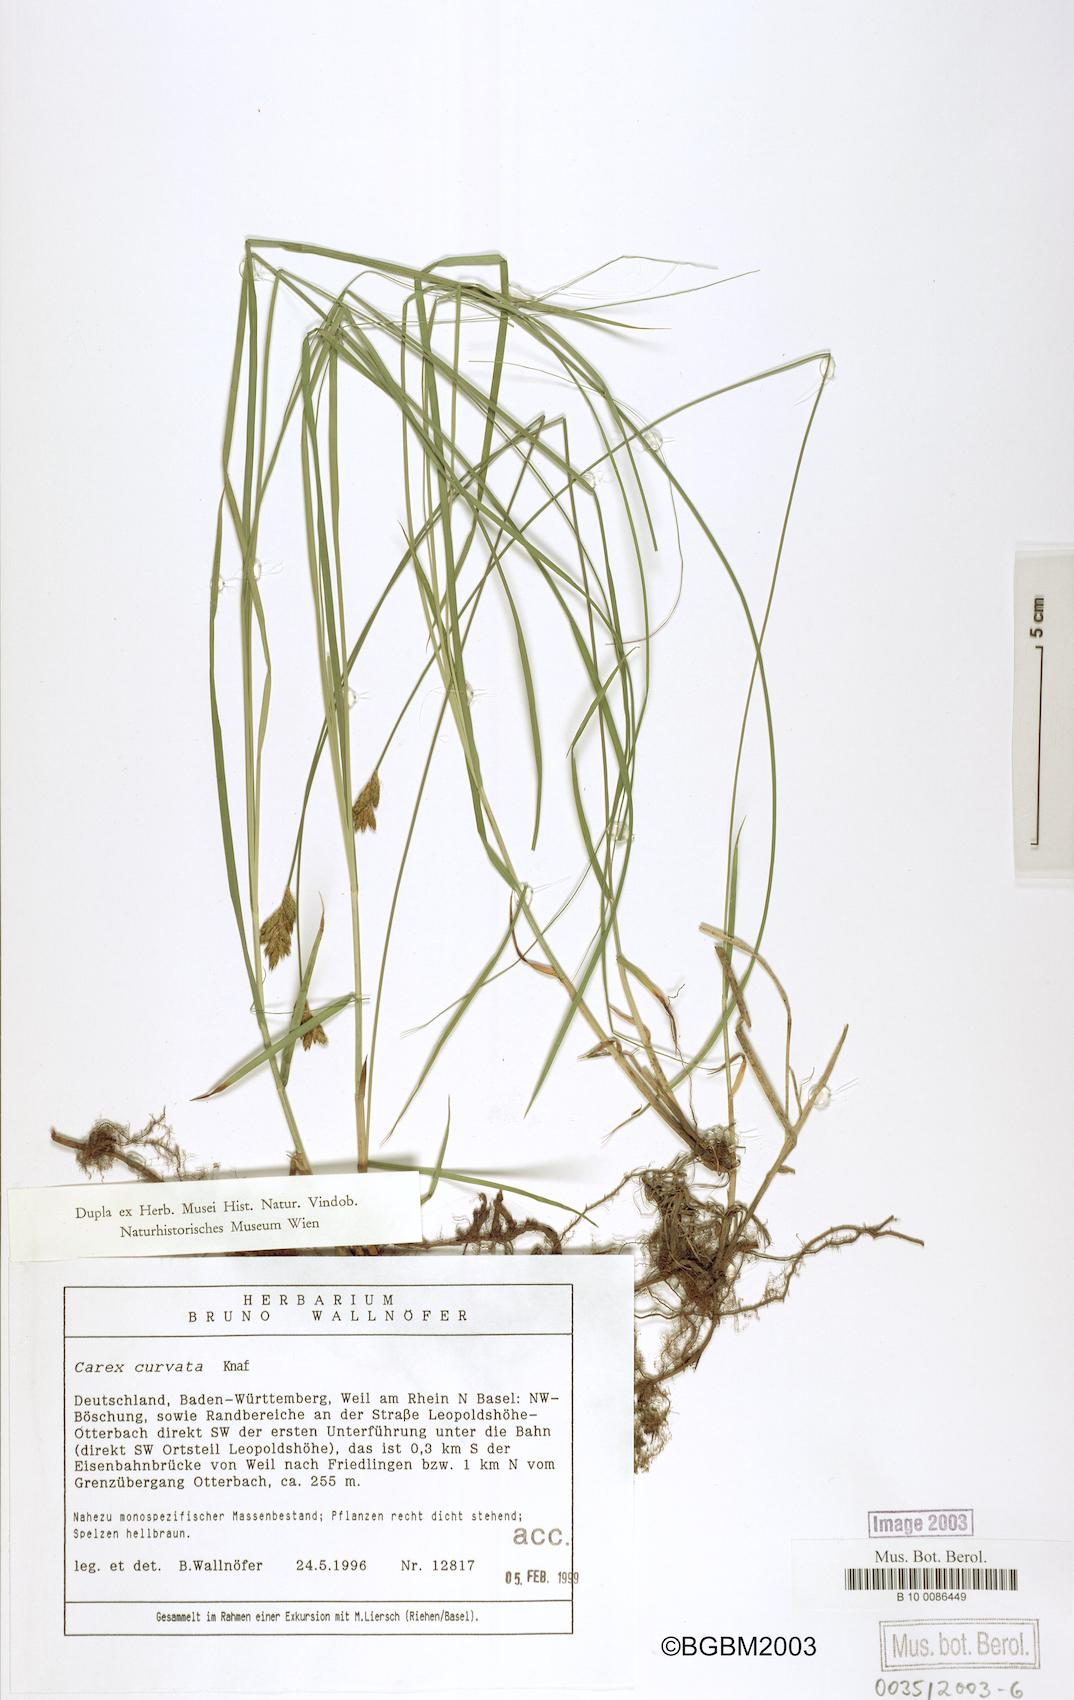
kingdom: Plantae
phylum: Tracheophyta
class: Liliopsida
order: Poales
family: Cyperaceae
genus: Carex
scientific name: Carex curvata
